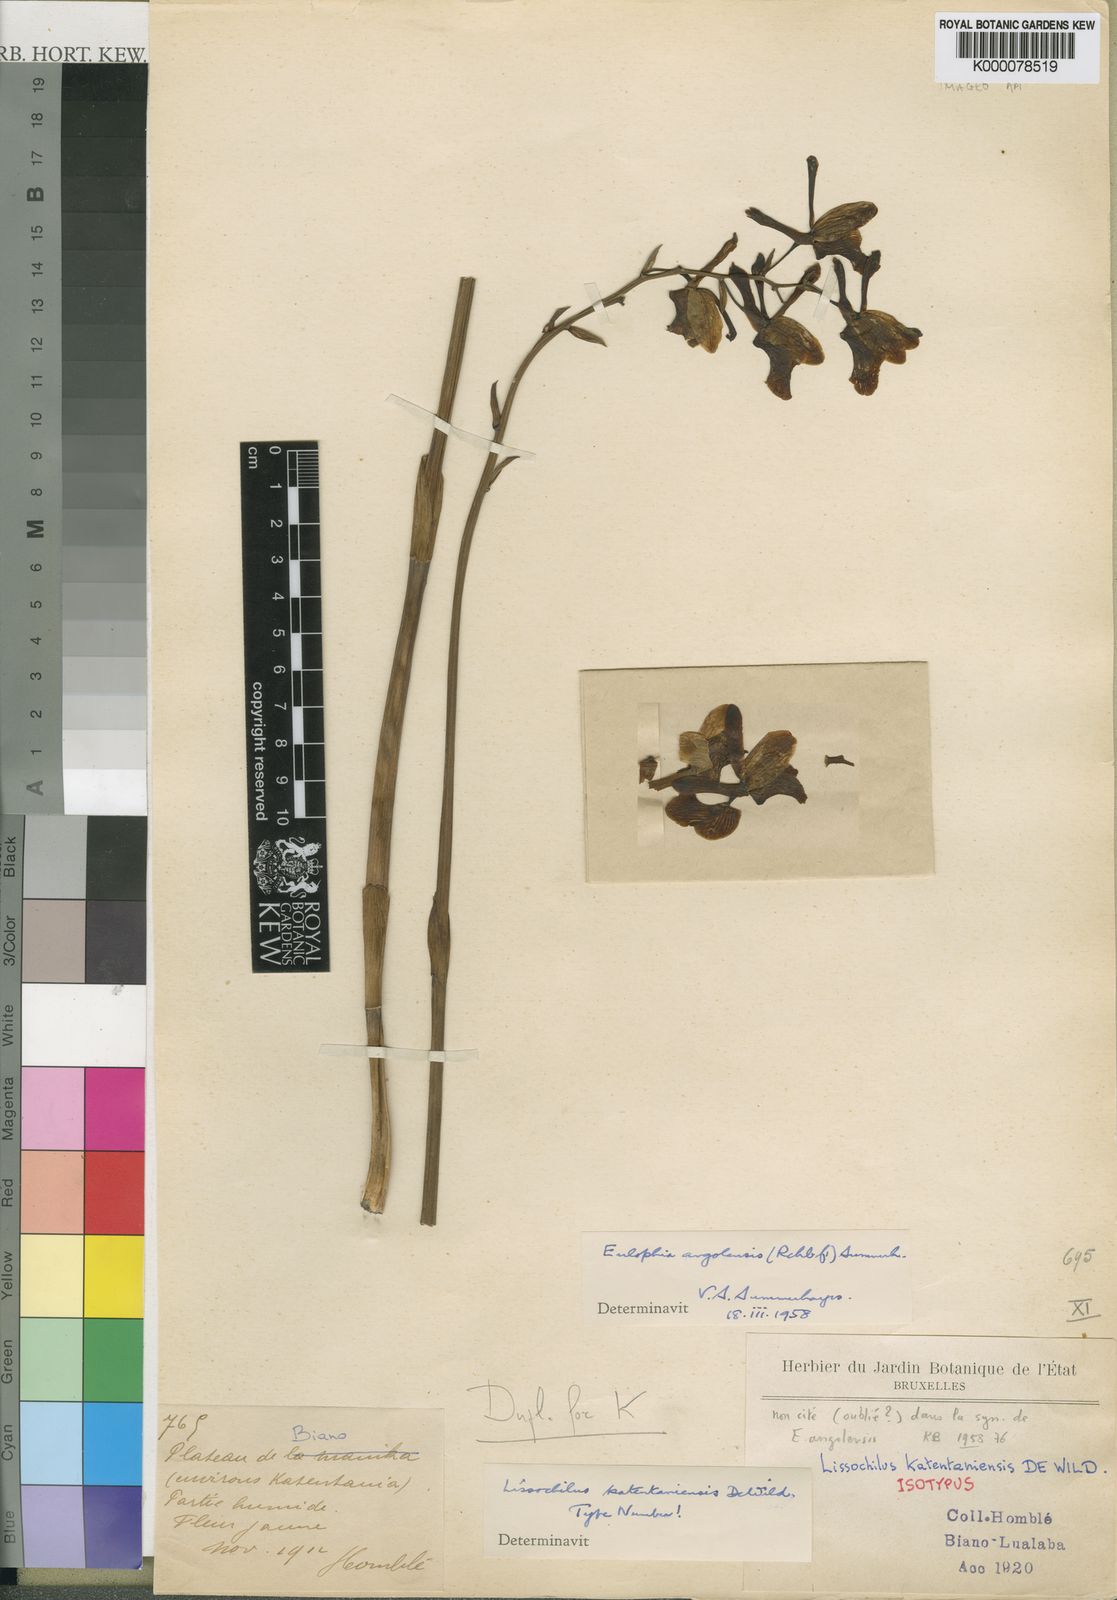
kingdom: Plantae
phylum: Tracheophyta
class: Liliopsida
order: Asparagales
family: Orchidaceae
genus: Eulophia
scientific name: Eulophia angolensis
